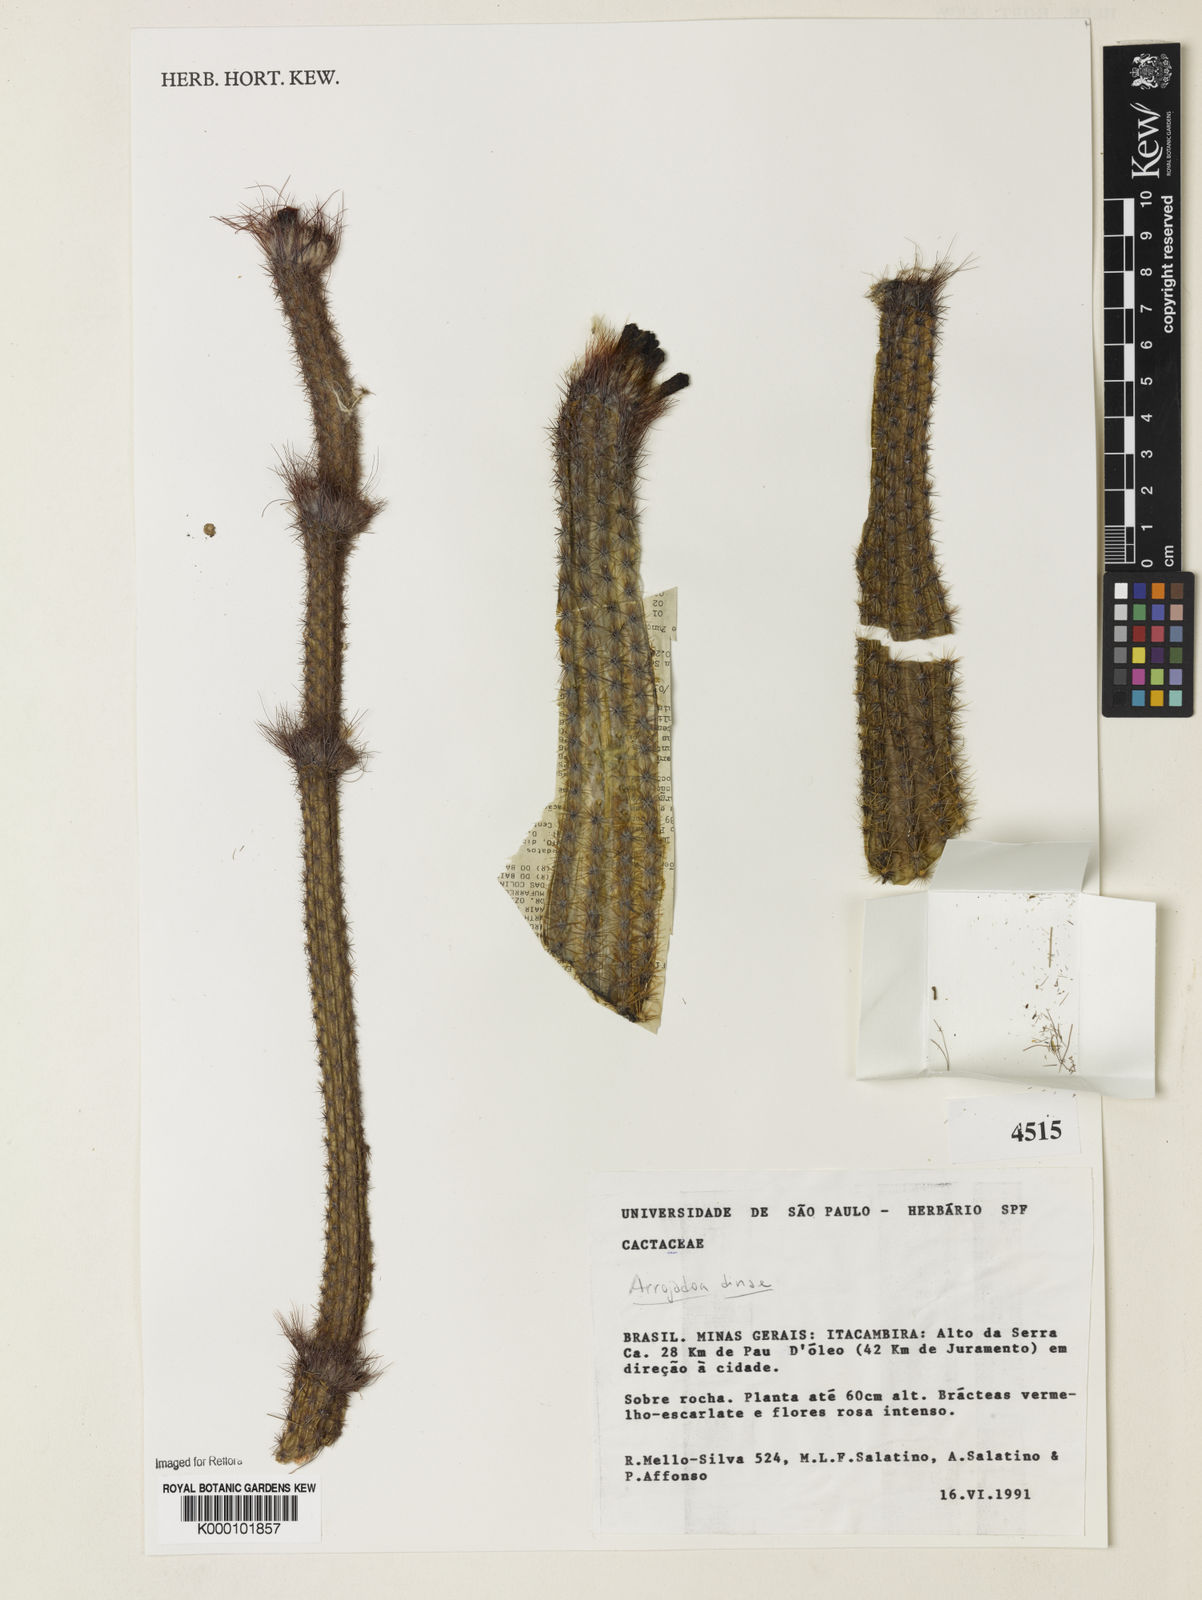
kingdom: Plantae
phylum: Tracheophyta
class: Magnoliopsida
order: Caryophyllales
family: Cactaceae
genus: Arrojadoa
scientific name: Arrojadoa dinae
